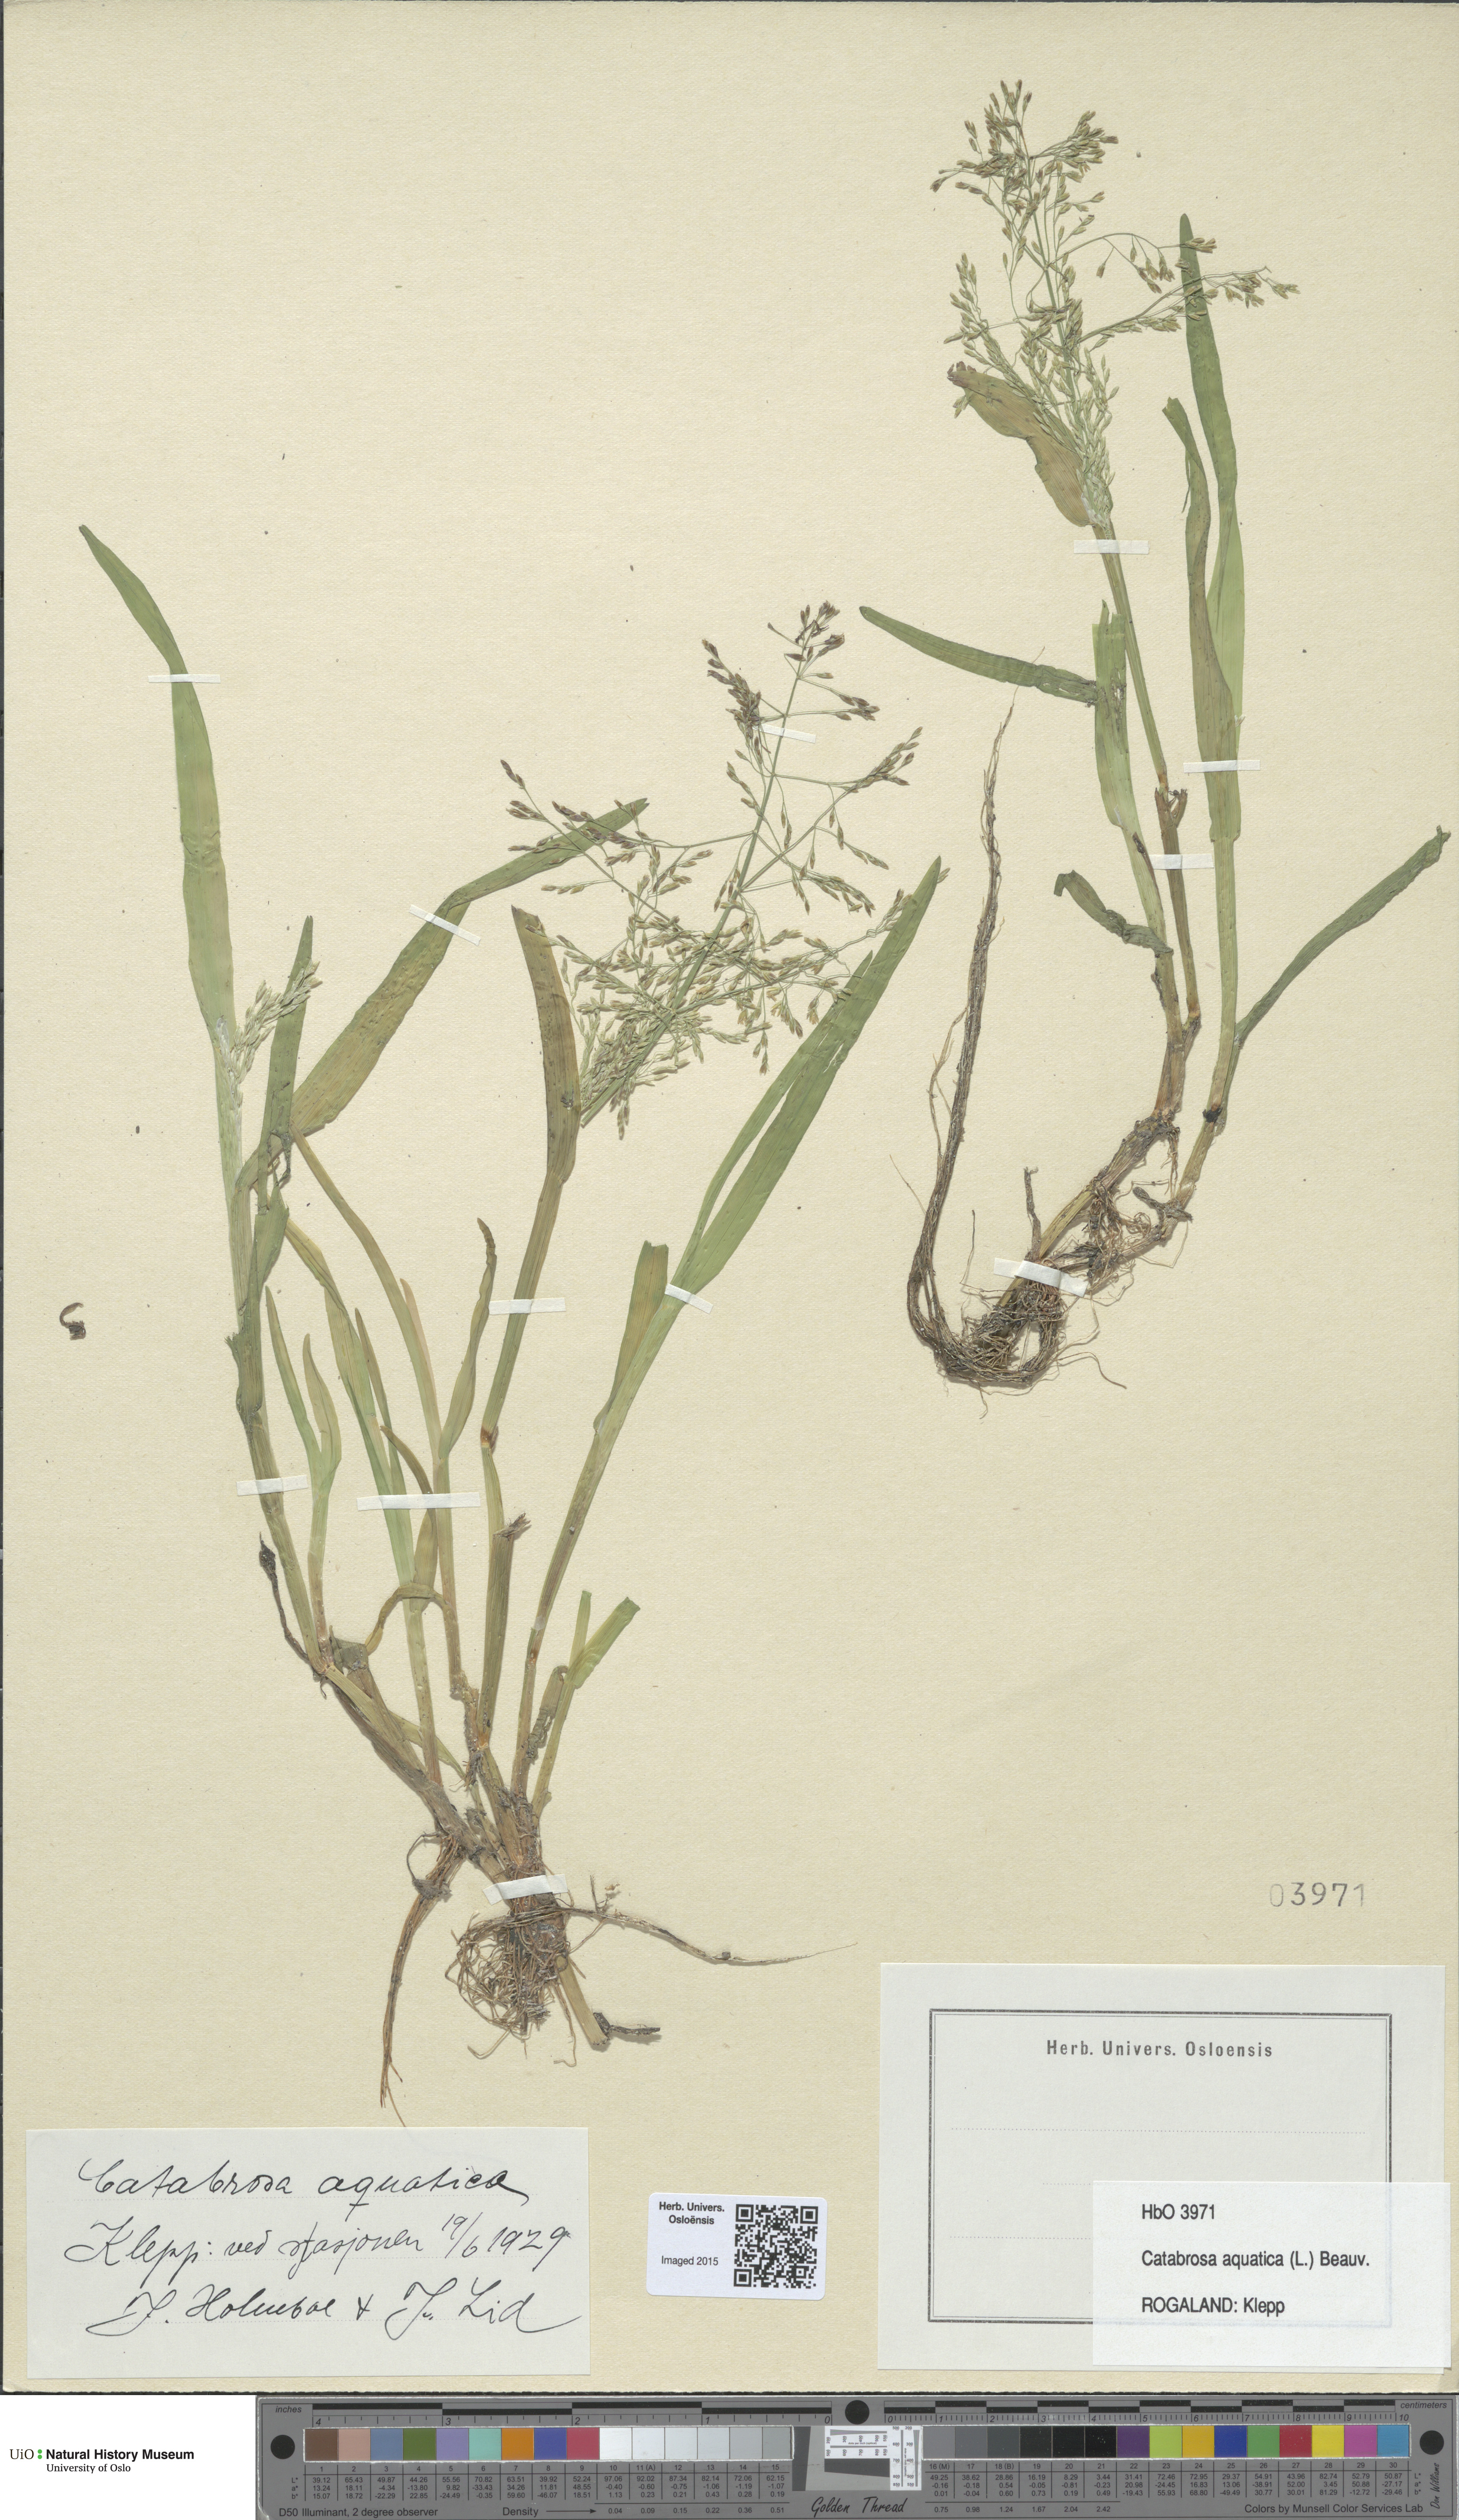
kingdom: Plantae
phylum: Tracheophyta
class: Liliopsida
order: Poales
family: Poaceae
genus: Catabrosa
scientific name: Catabrosa aquatica
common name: Whorl-grass
